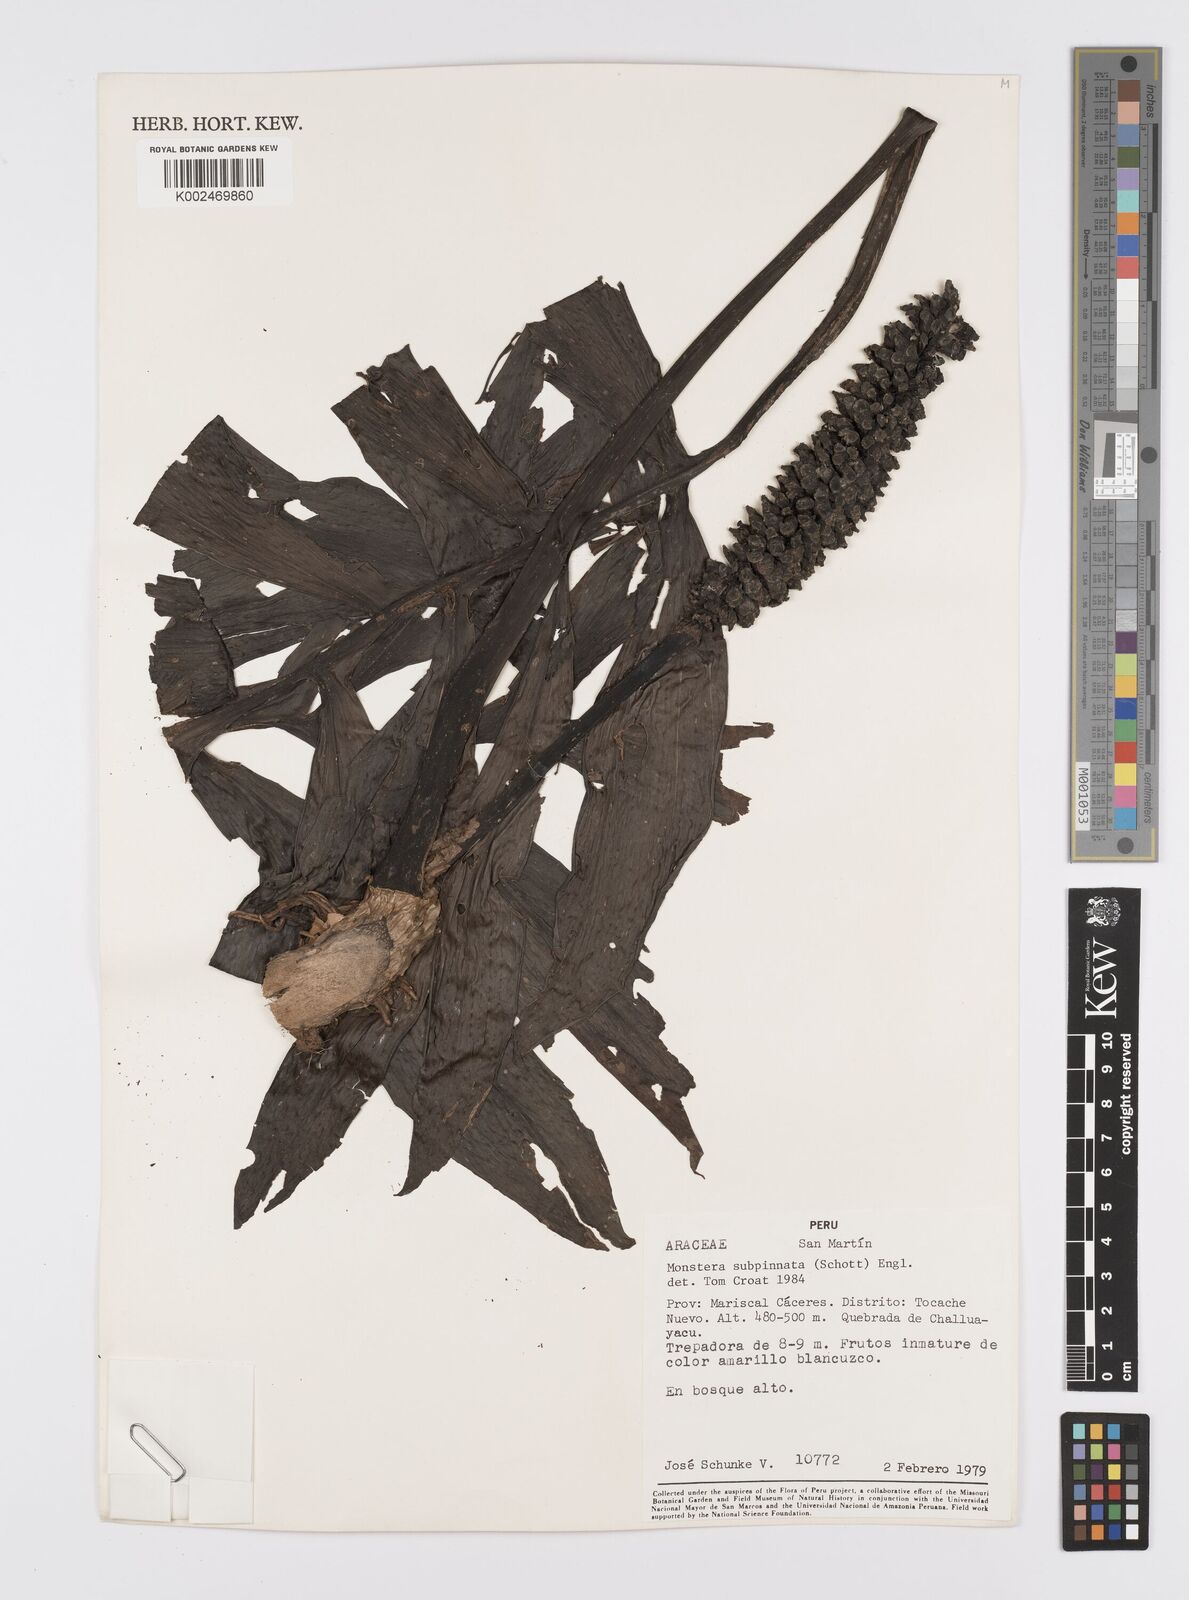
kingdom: Plantae
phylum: Tracheophyta
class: Liliopsida
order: Alismatales
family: Araceae
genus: Monstera
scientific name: Monstera subpinnata
